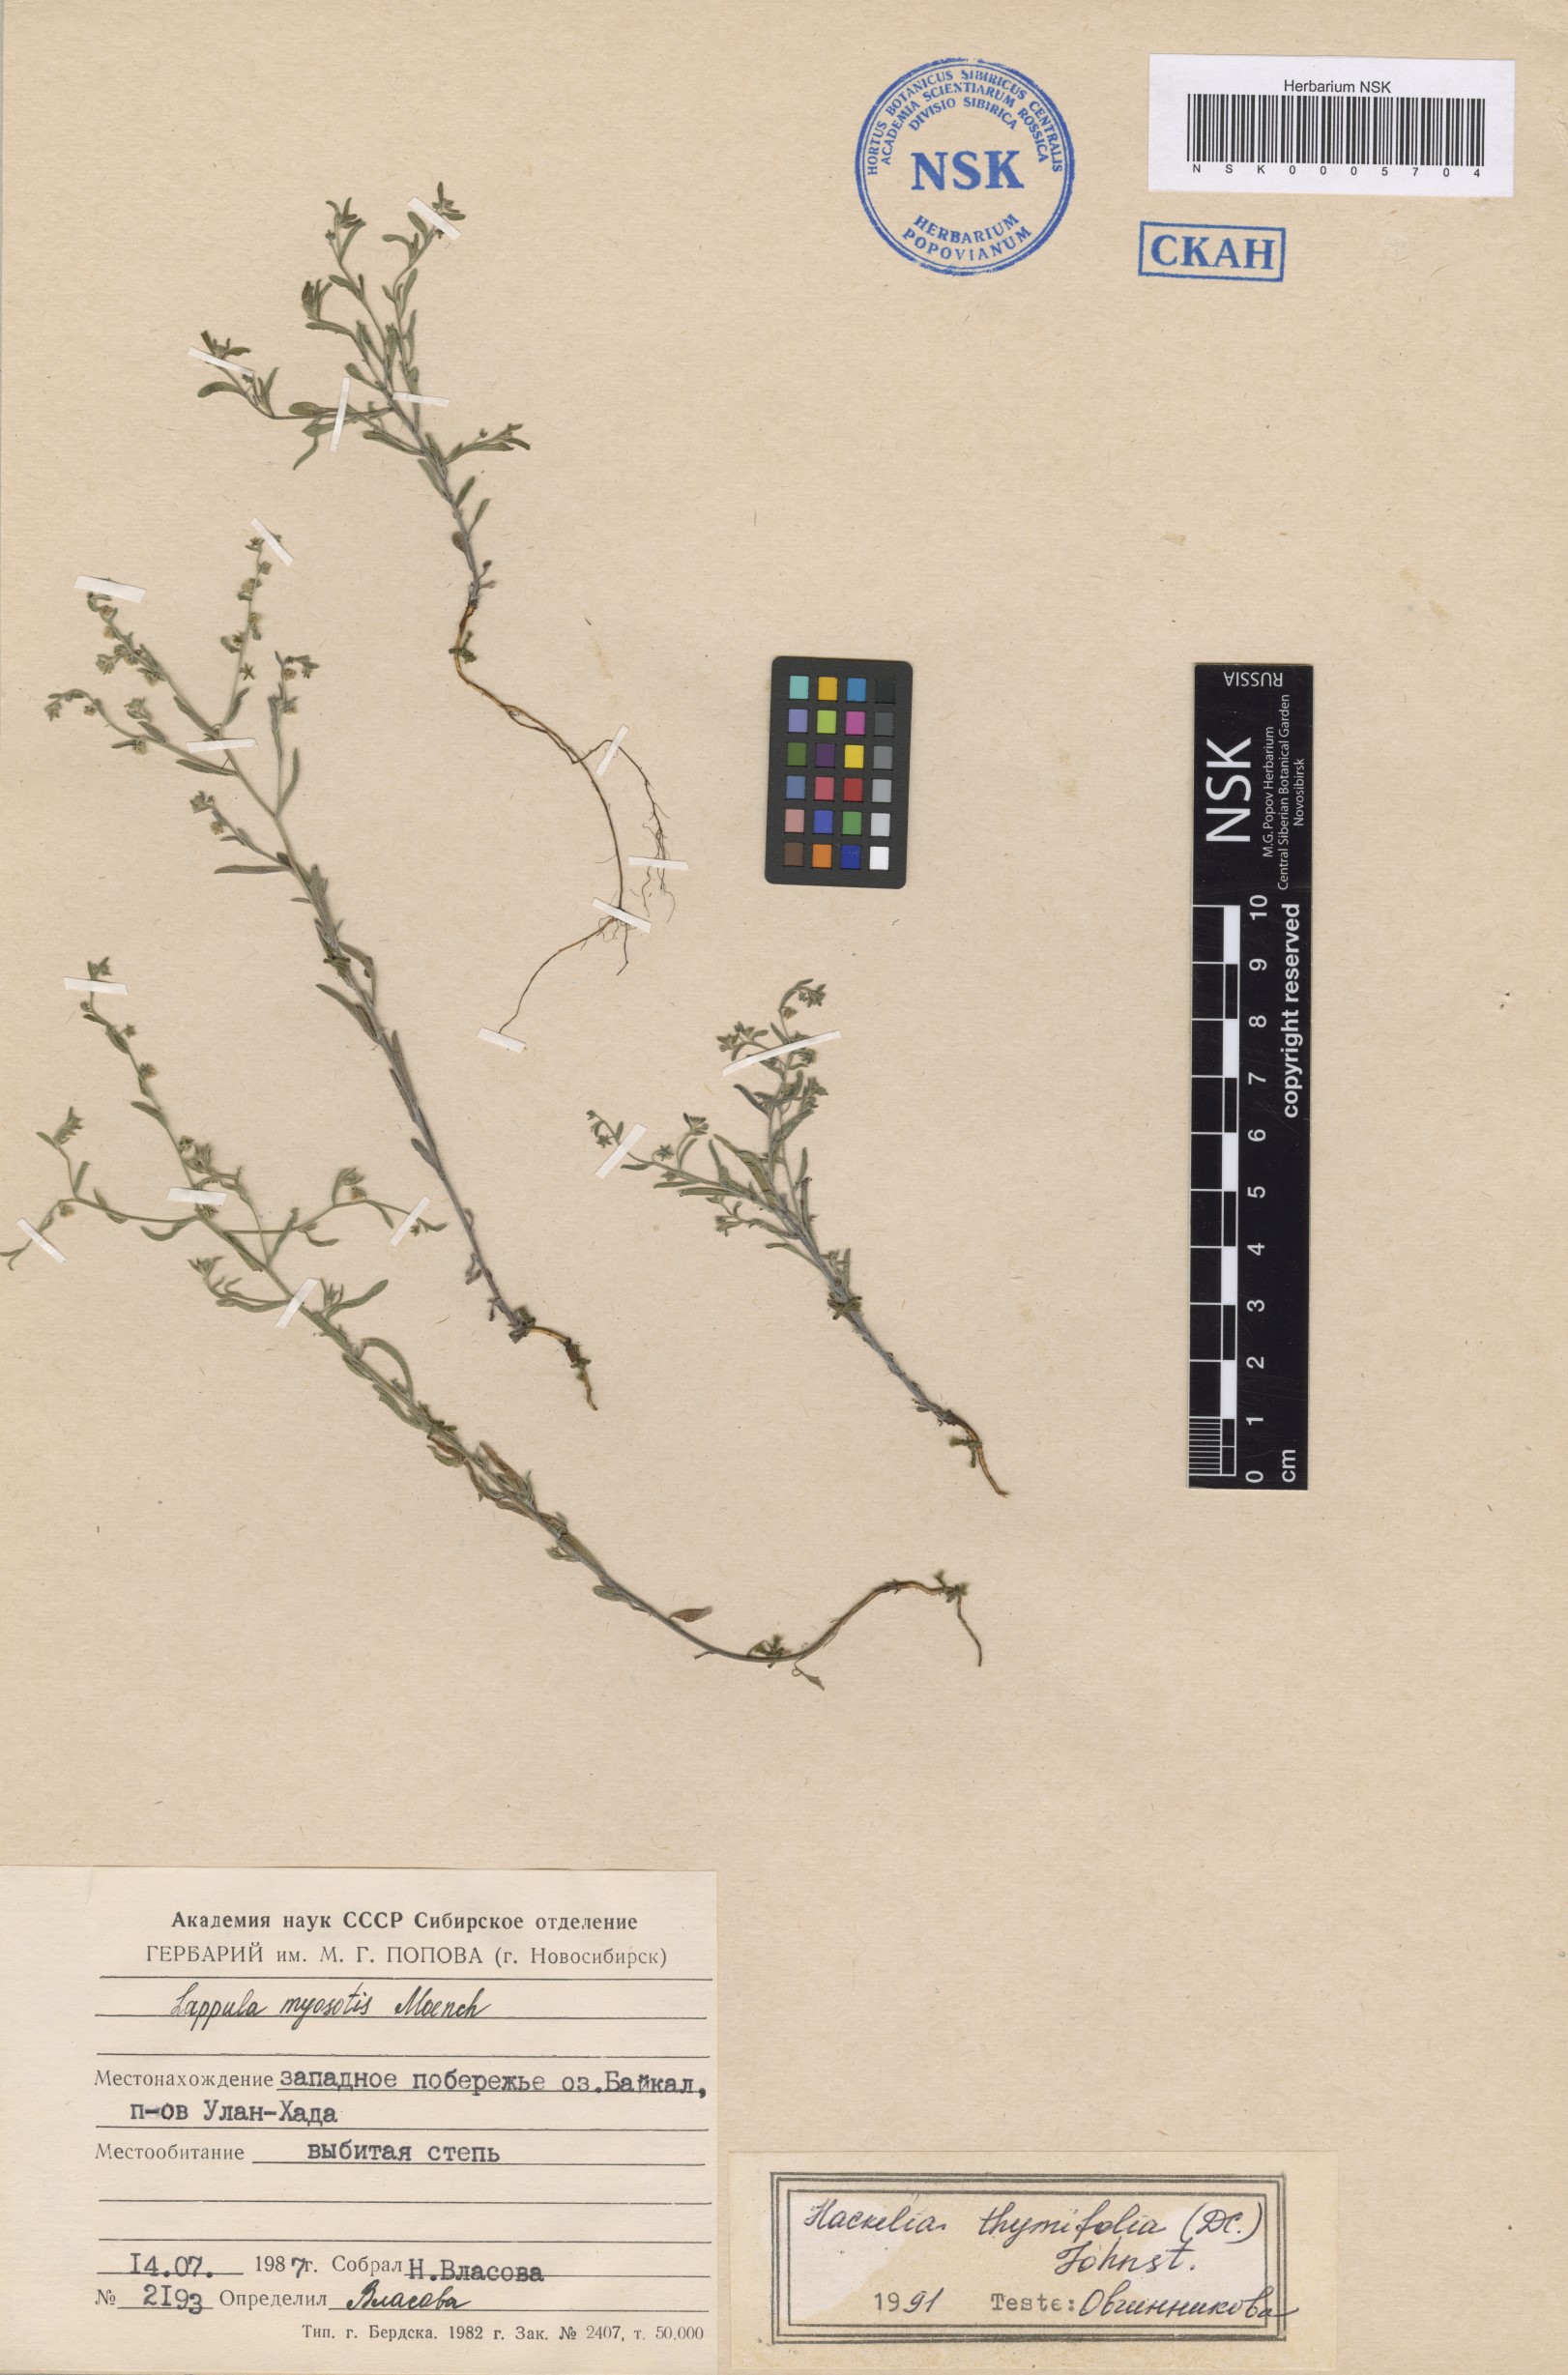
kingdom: Plantae
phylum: Tracheophyta
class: Magnoliopsida
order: Boraginales
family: Boraginaceae
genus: Eritrichium
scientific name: Eritrichium thymifolium
